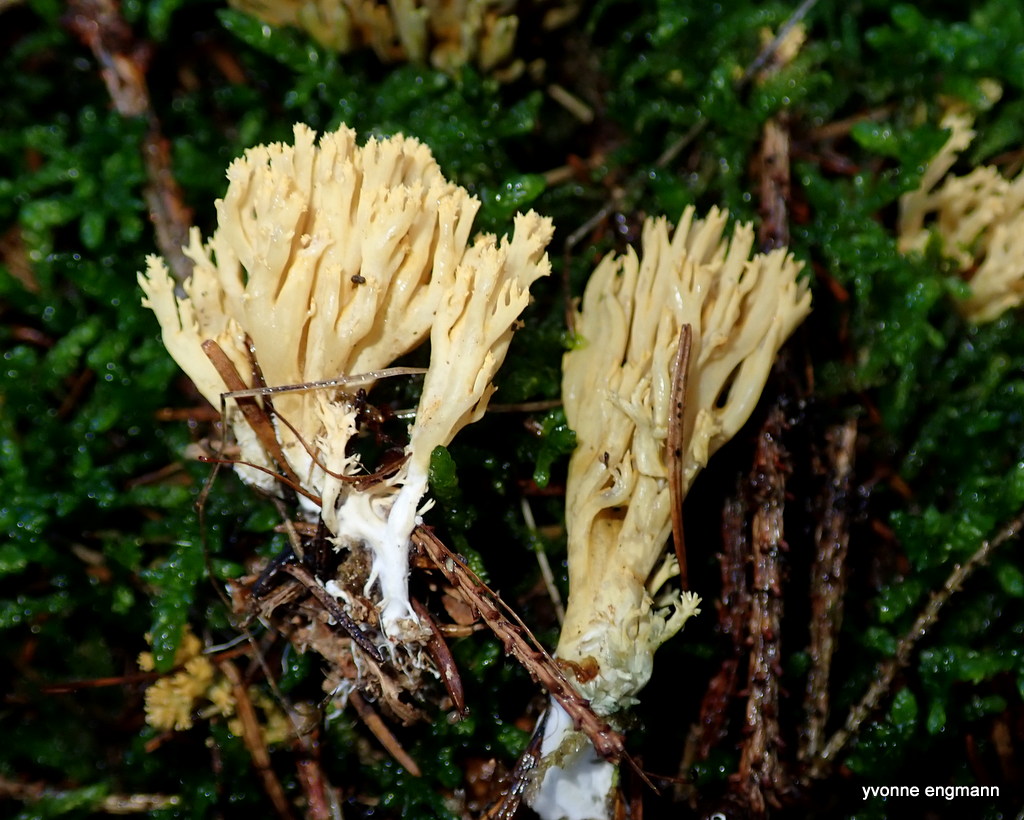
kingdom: Fungi
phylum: Basidiomycota
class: Agaricomycetes
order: Gomphales
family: Gomphaceae
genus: Phaeoclavulina
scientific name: Phaeoclavulina eumorpha
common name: gran-koralsvamp
